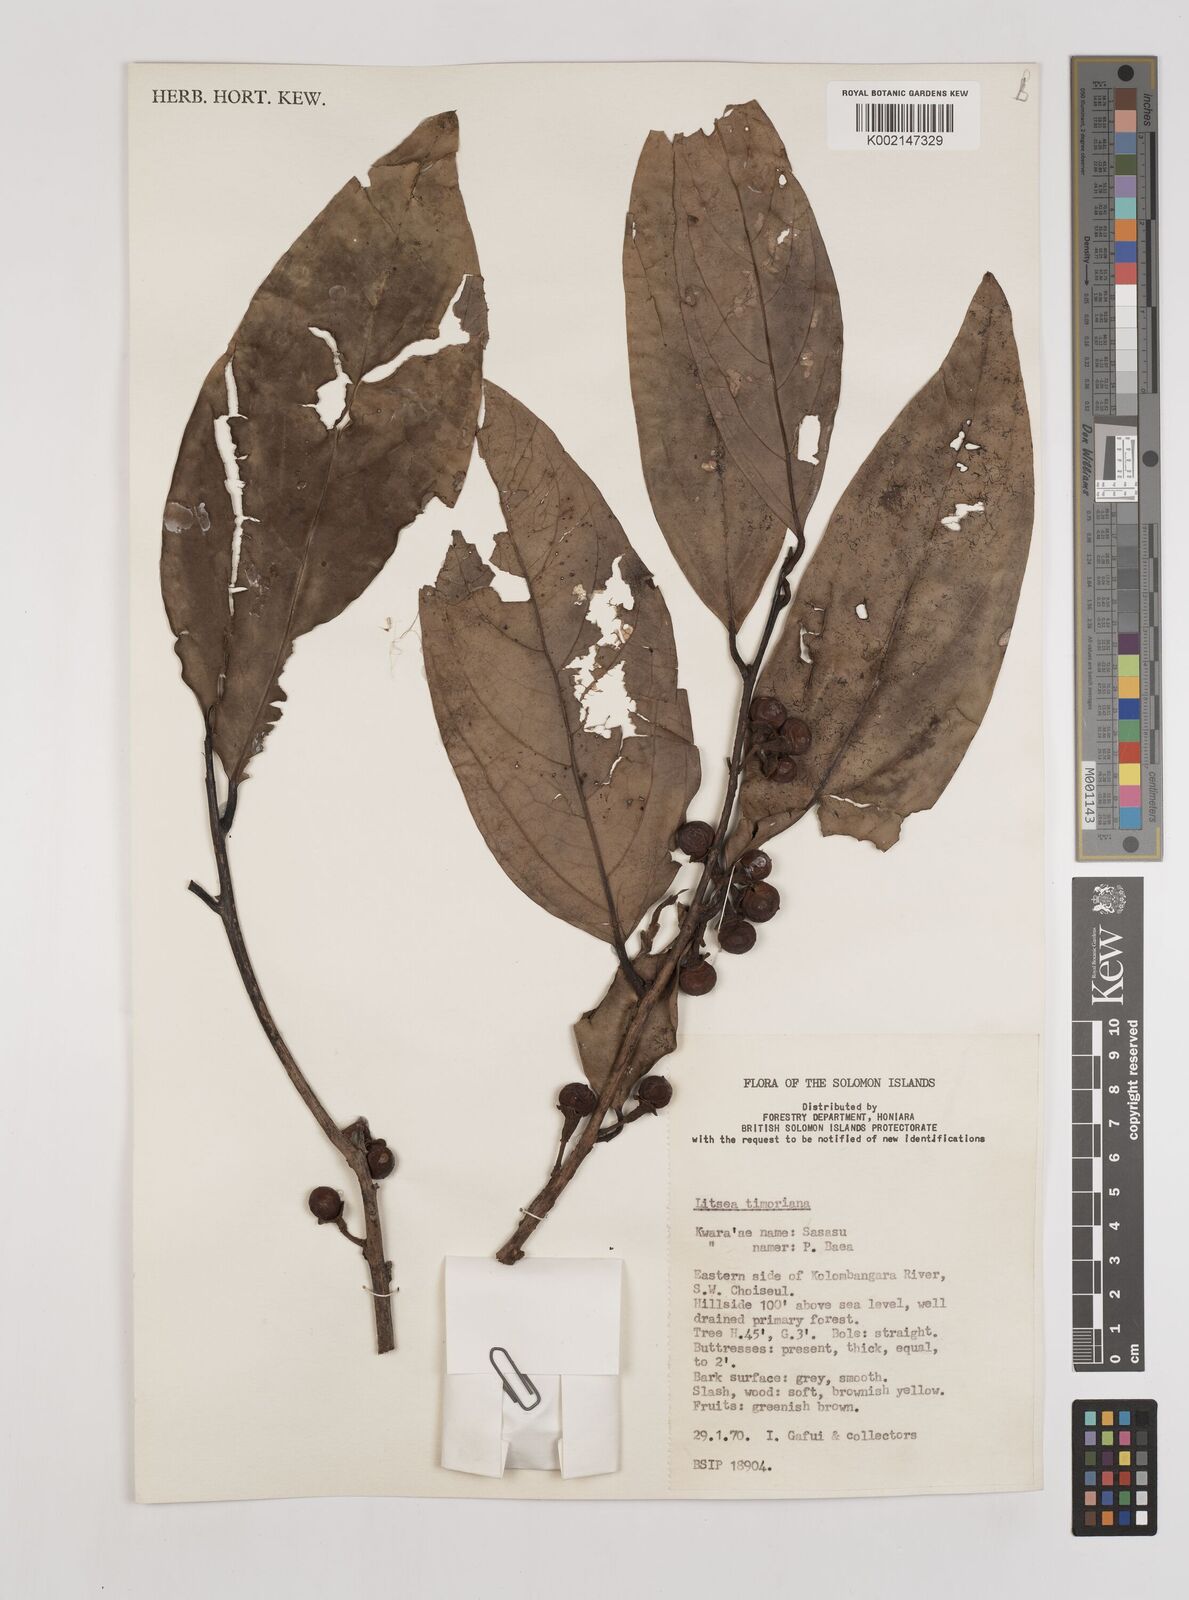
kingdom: Plantae
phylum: Tracheophyta
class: Magnoliopsida
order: Laurales
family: Lauraceae
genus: Litsea
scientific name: Litsea timoriana
